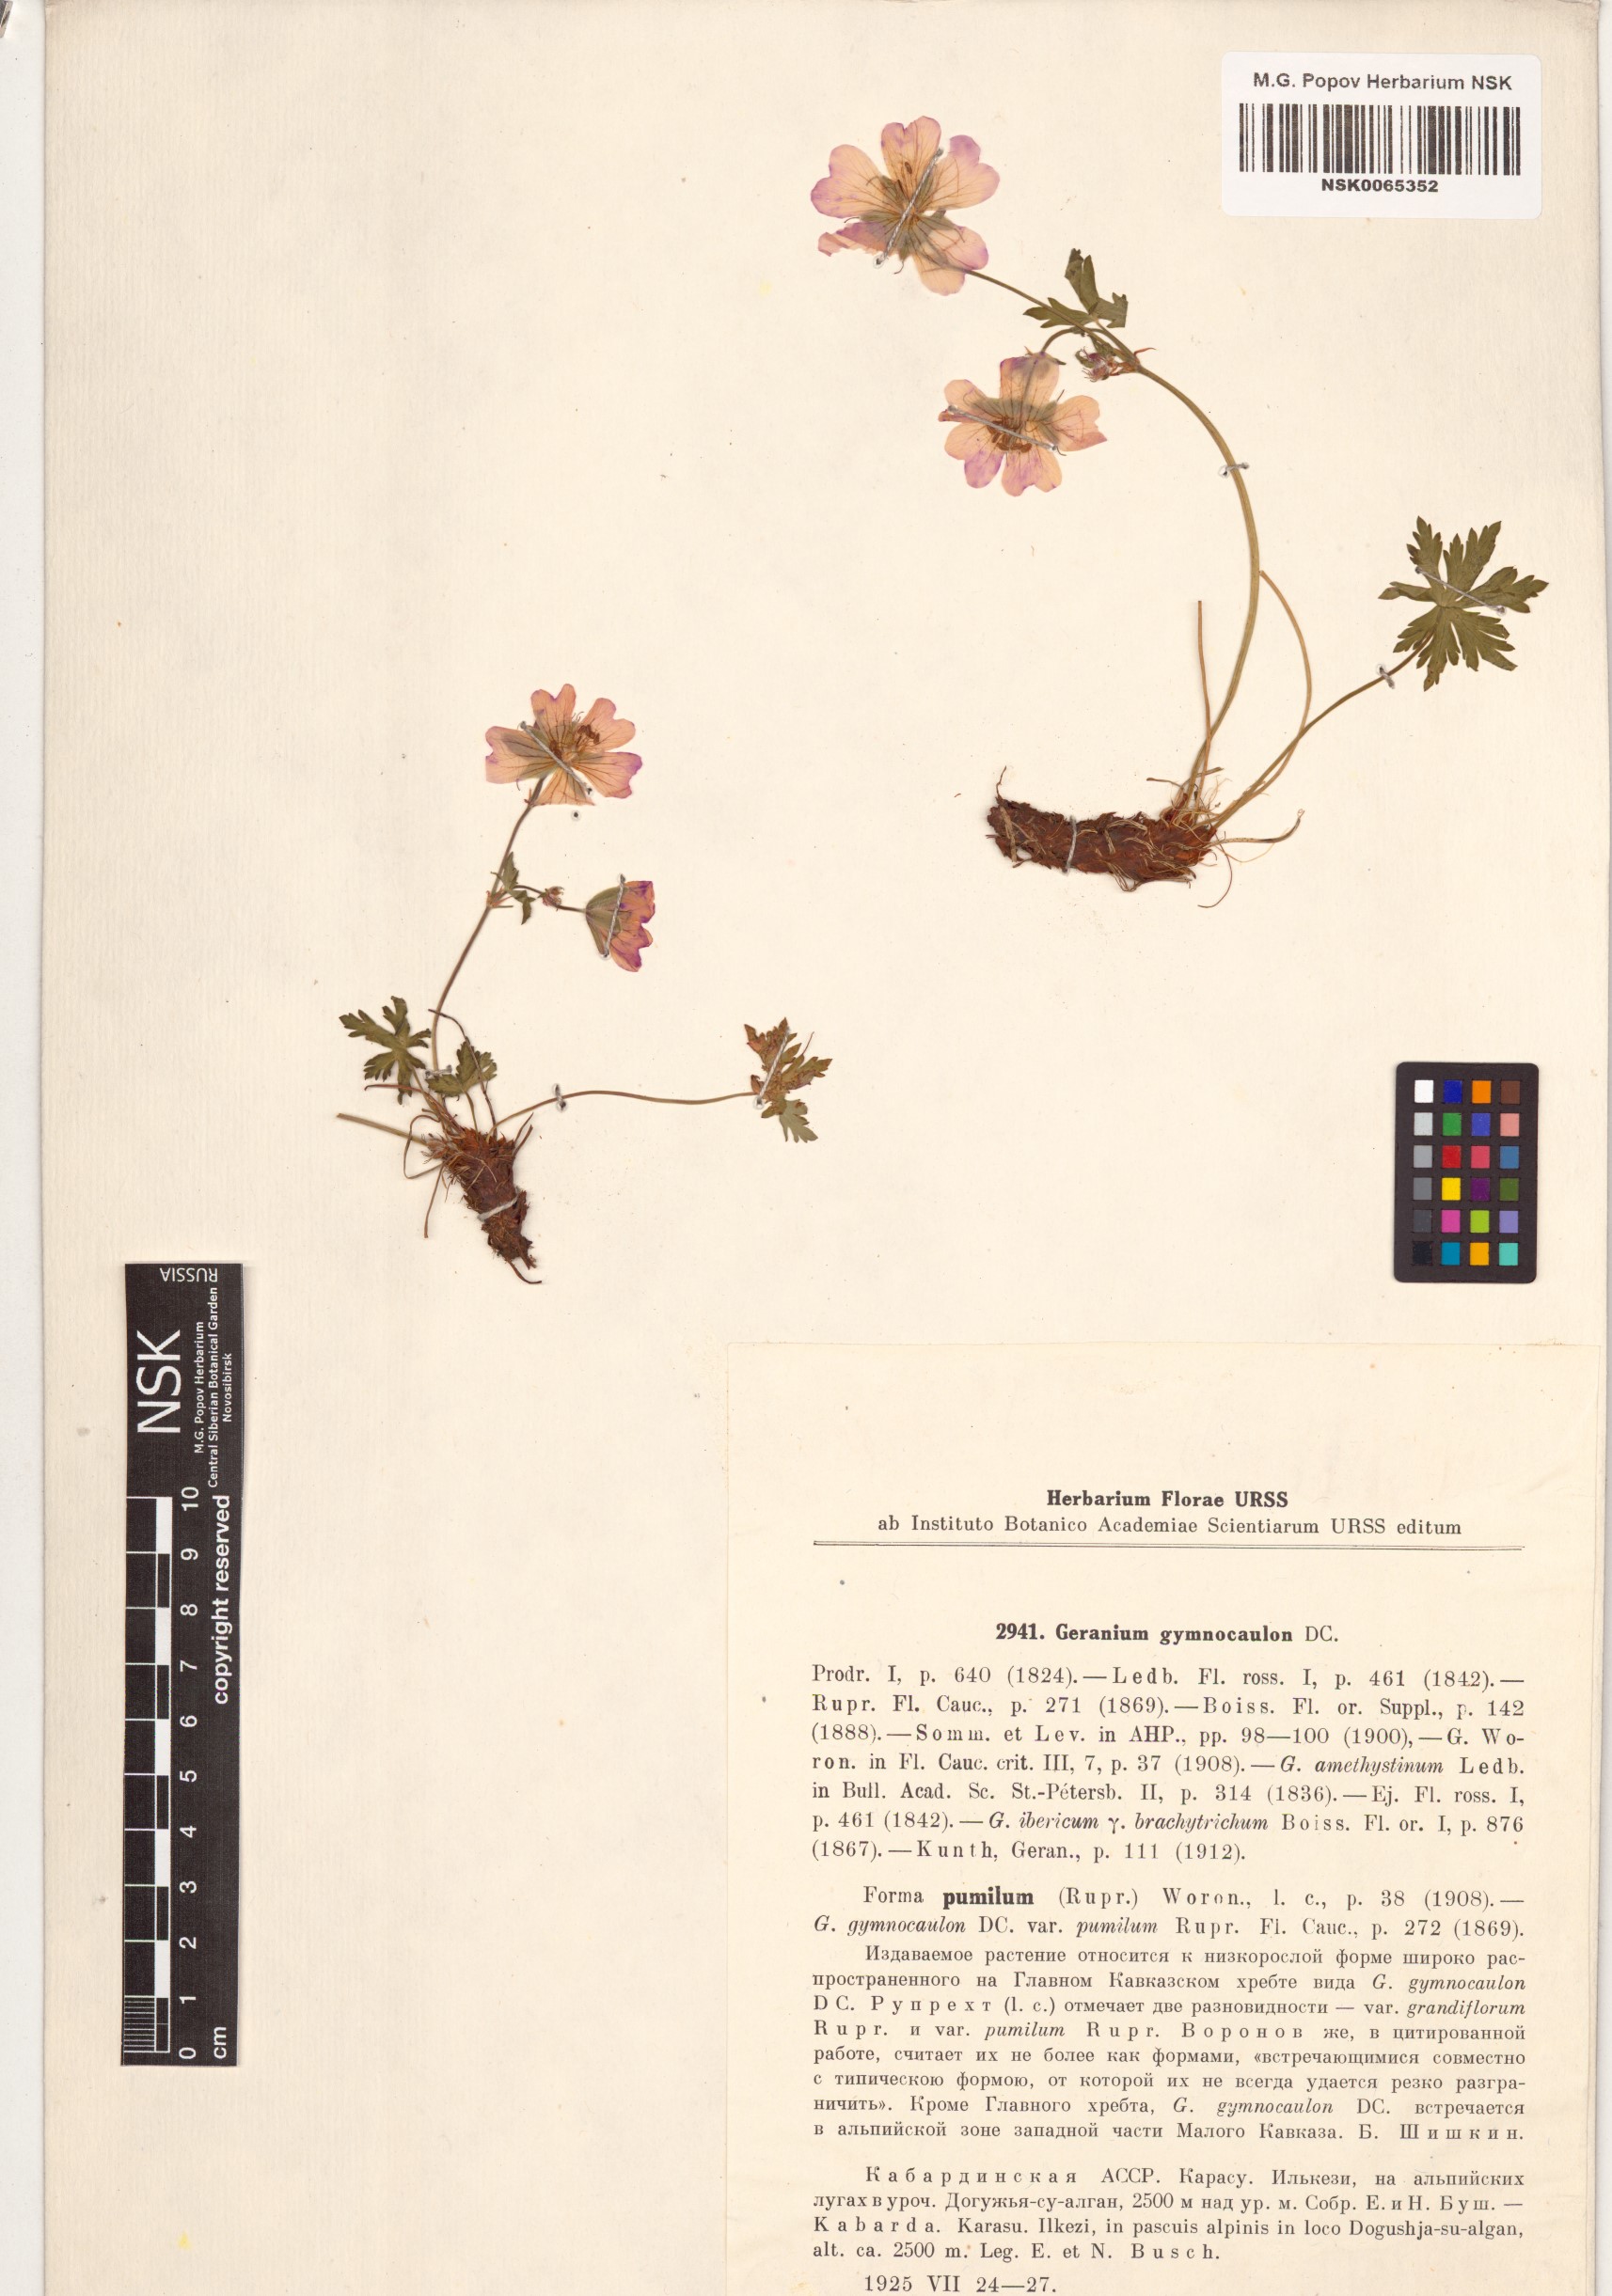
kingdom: Plantae
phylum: Tracheophyta
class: Magnoliopsida
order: Geraniales
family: Geraniaceae
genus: Geranium
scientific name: Geranium gymnocaulon
